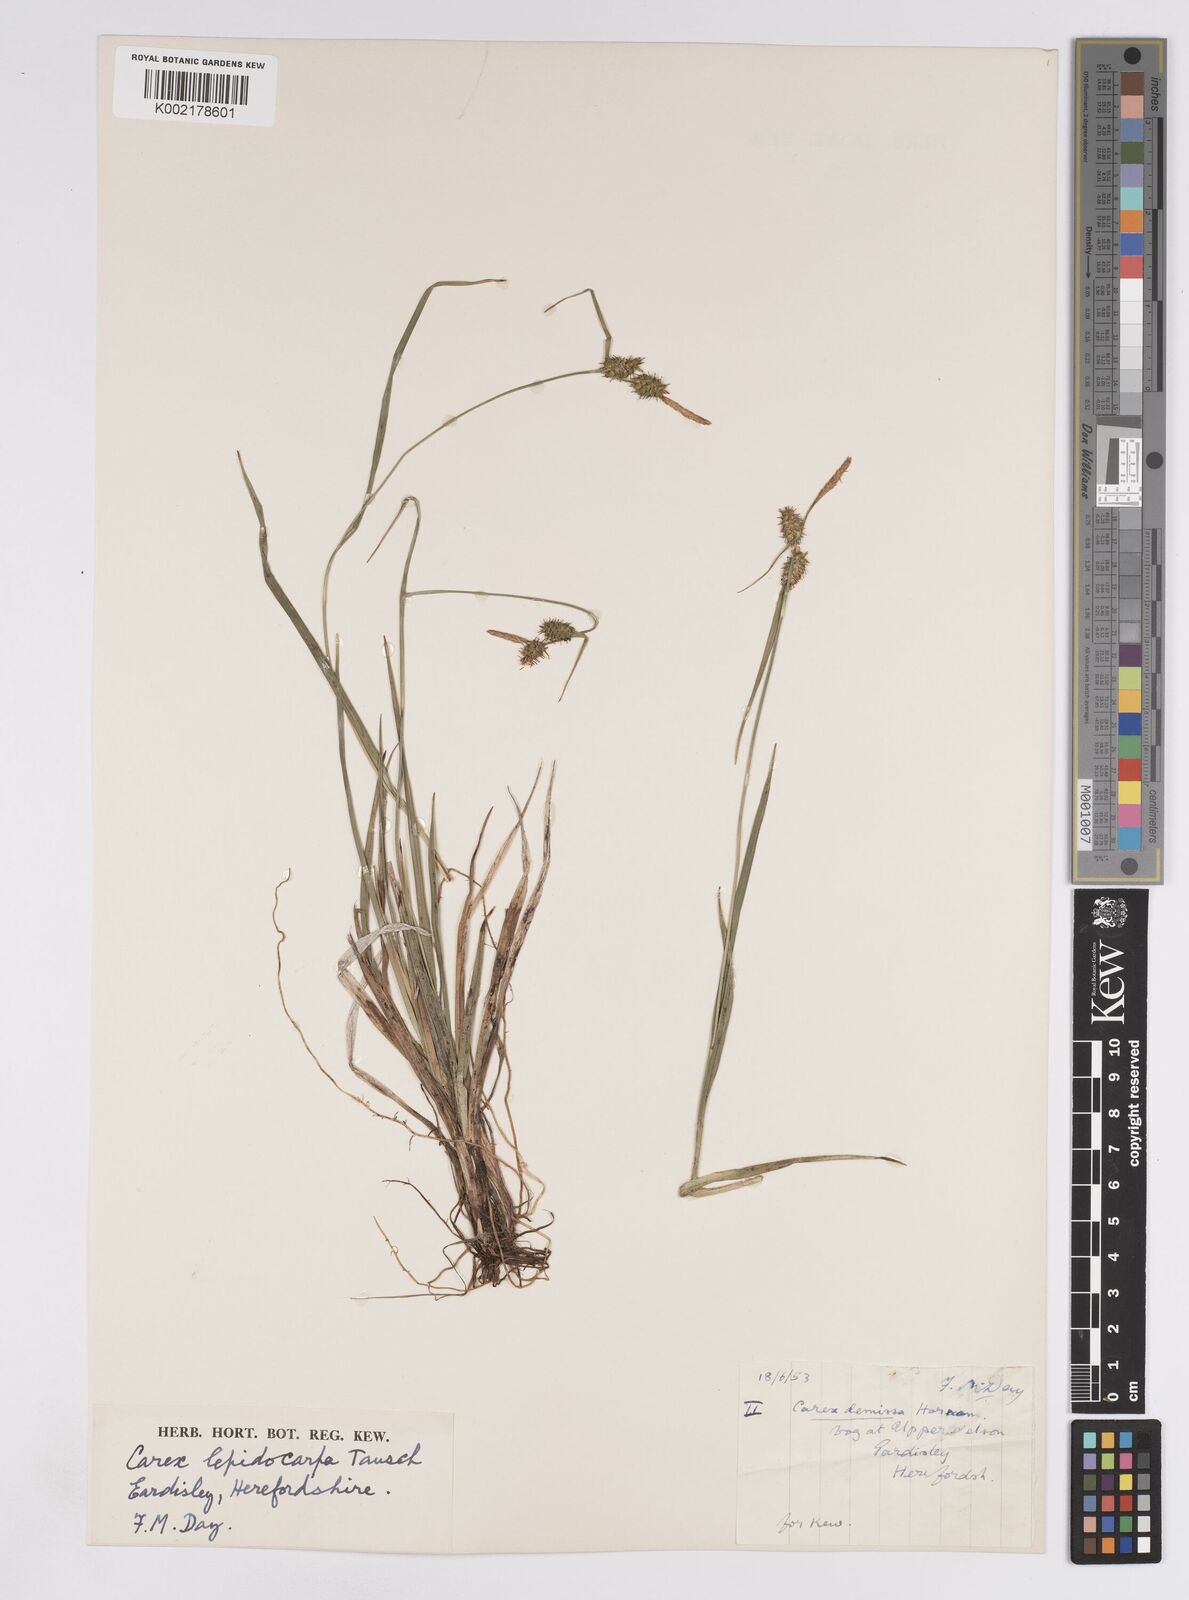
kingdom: Plantae
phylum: Tracheophyta
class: Liliopsida
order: Poales
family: Cyperaceae
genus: Carex
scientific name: Carex lepidocarpa
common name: Long-stalked yellow-sedge
